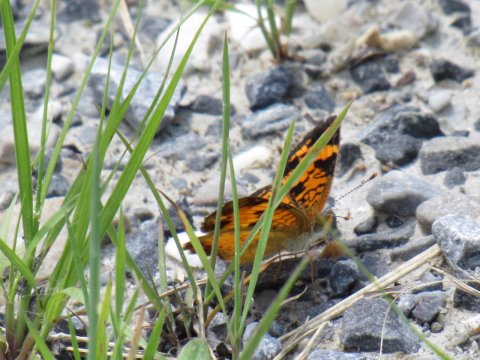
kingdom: Animalia
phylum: Arthropoda
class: Insecta
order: Lepidoptera
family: Nymphalidae
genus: Phyciodes
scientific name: Phyciodes
